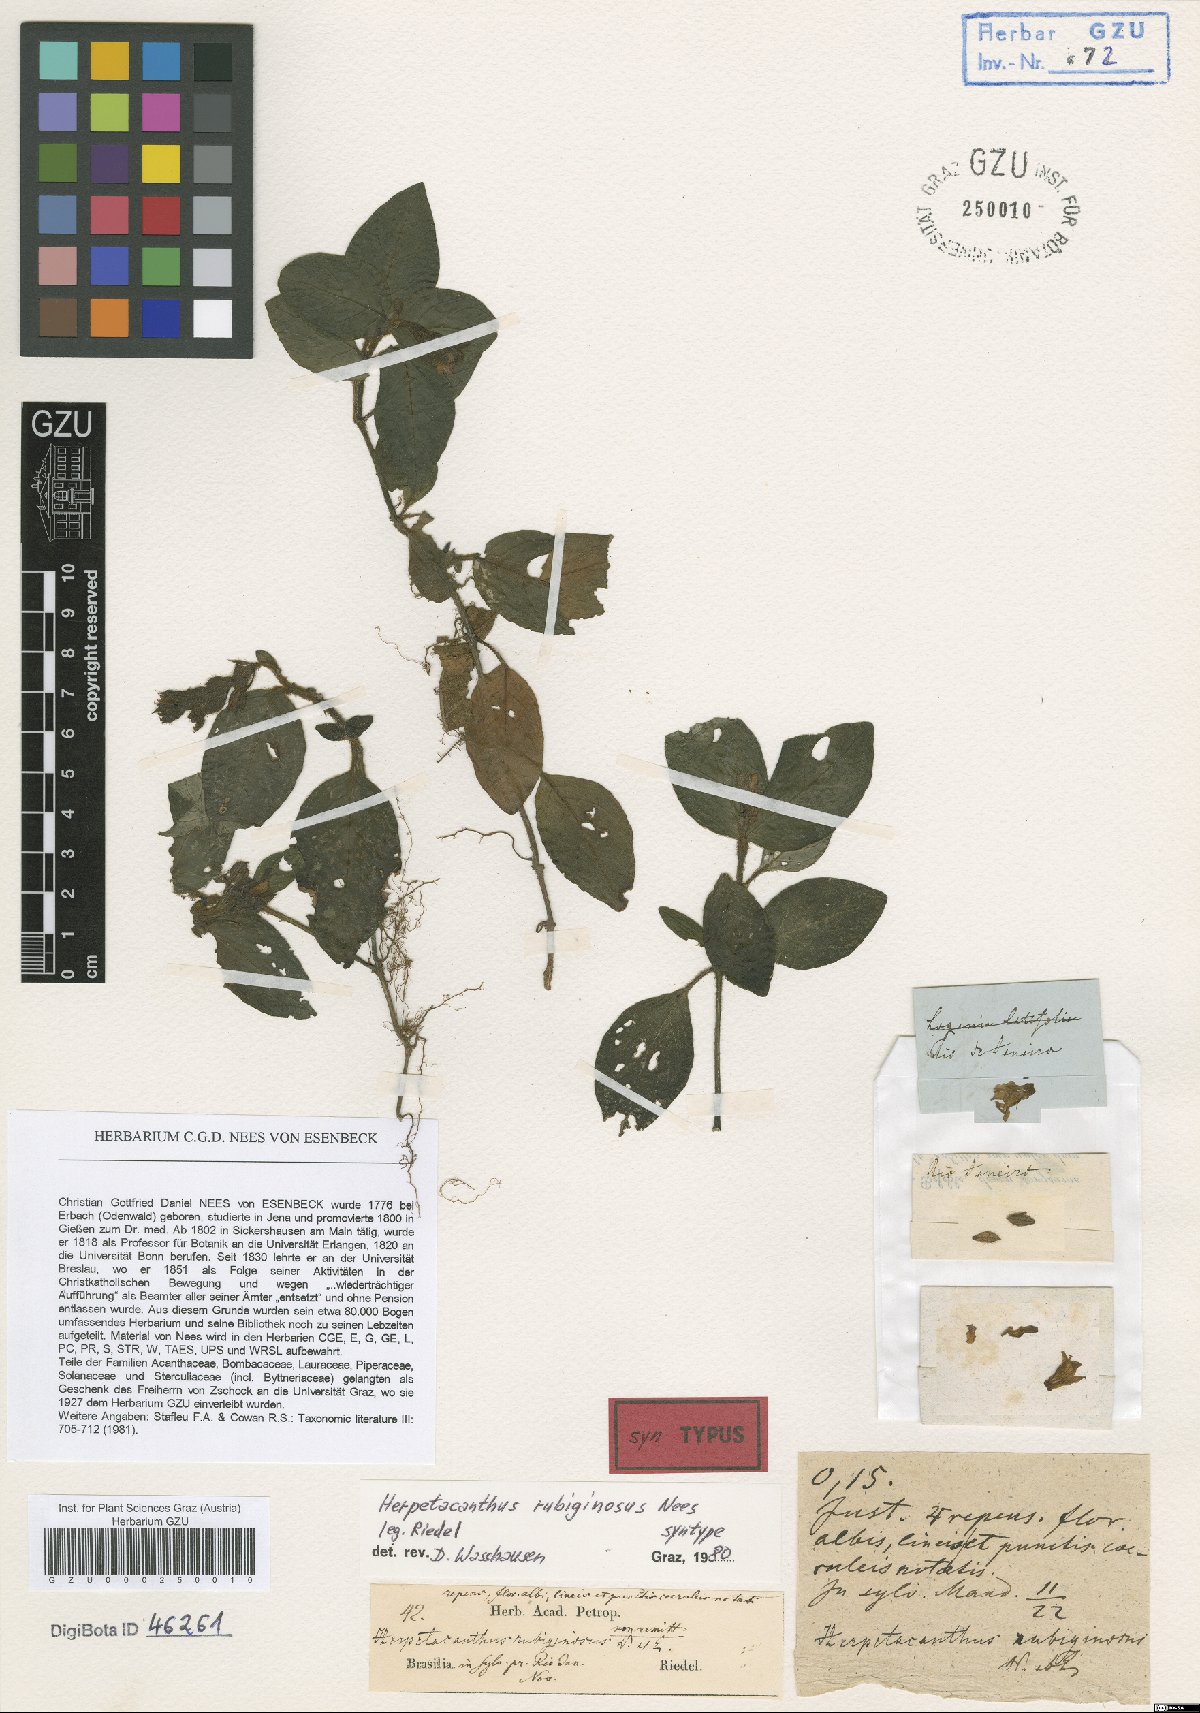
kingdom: Plantae
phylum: Tracheophyta
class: Magnoliopsida
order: Lamiales
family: Acanthaceae
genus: Herpetacanthus
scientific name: Herpetacanthus rubiginosus
